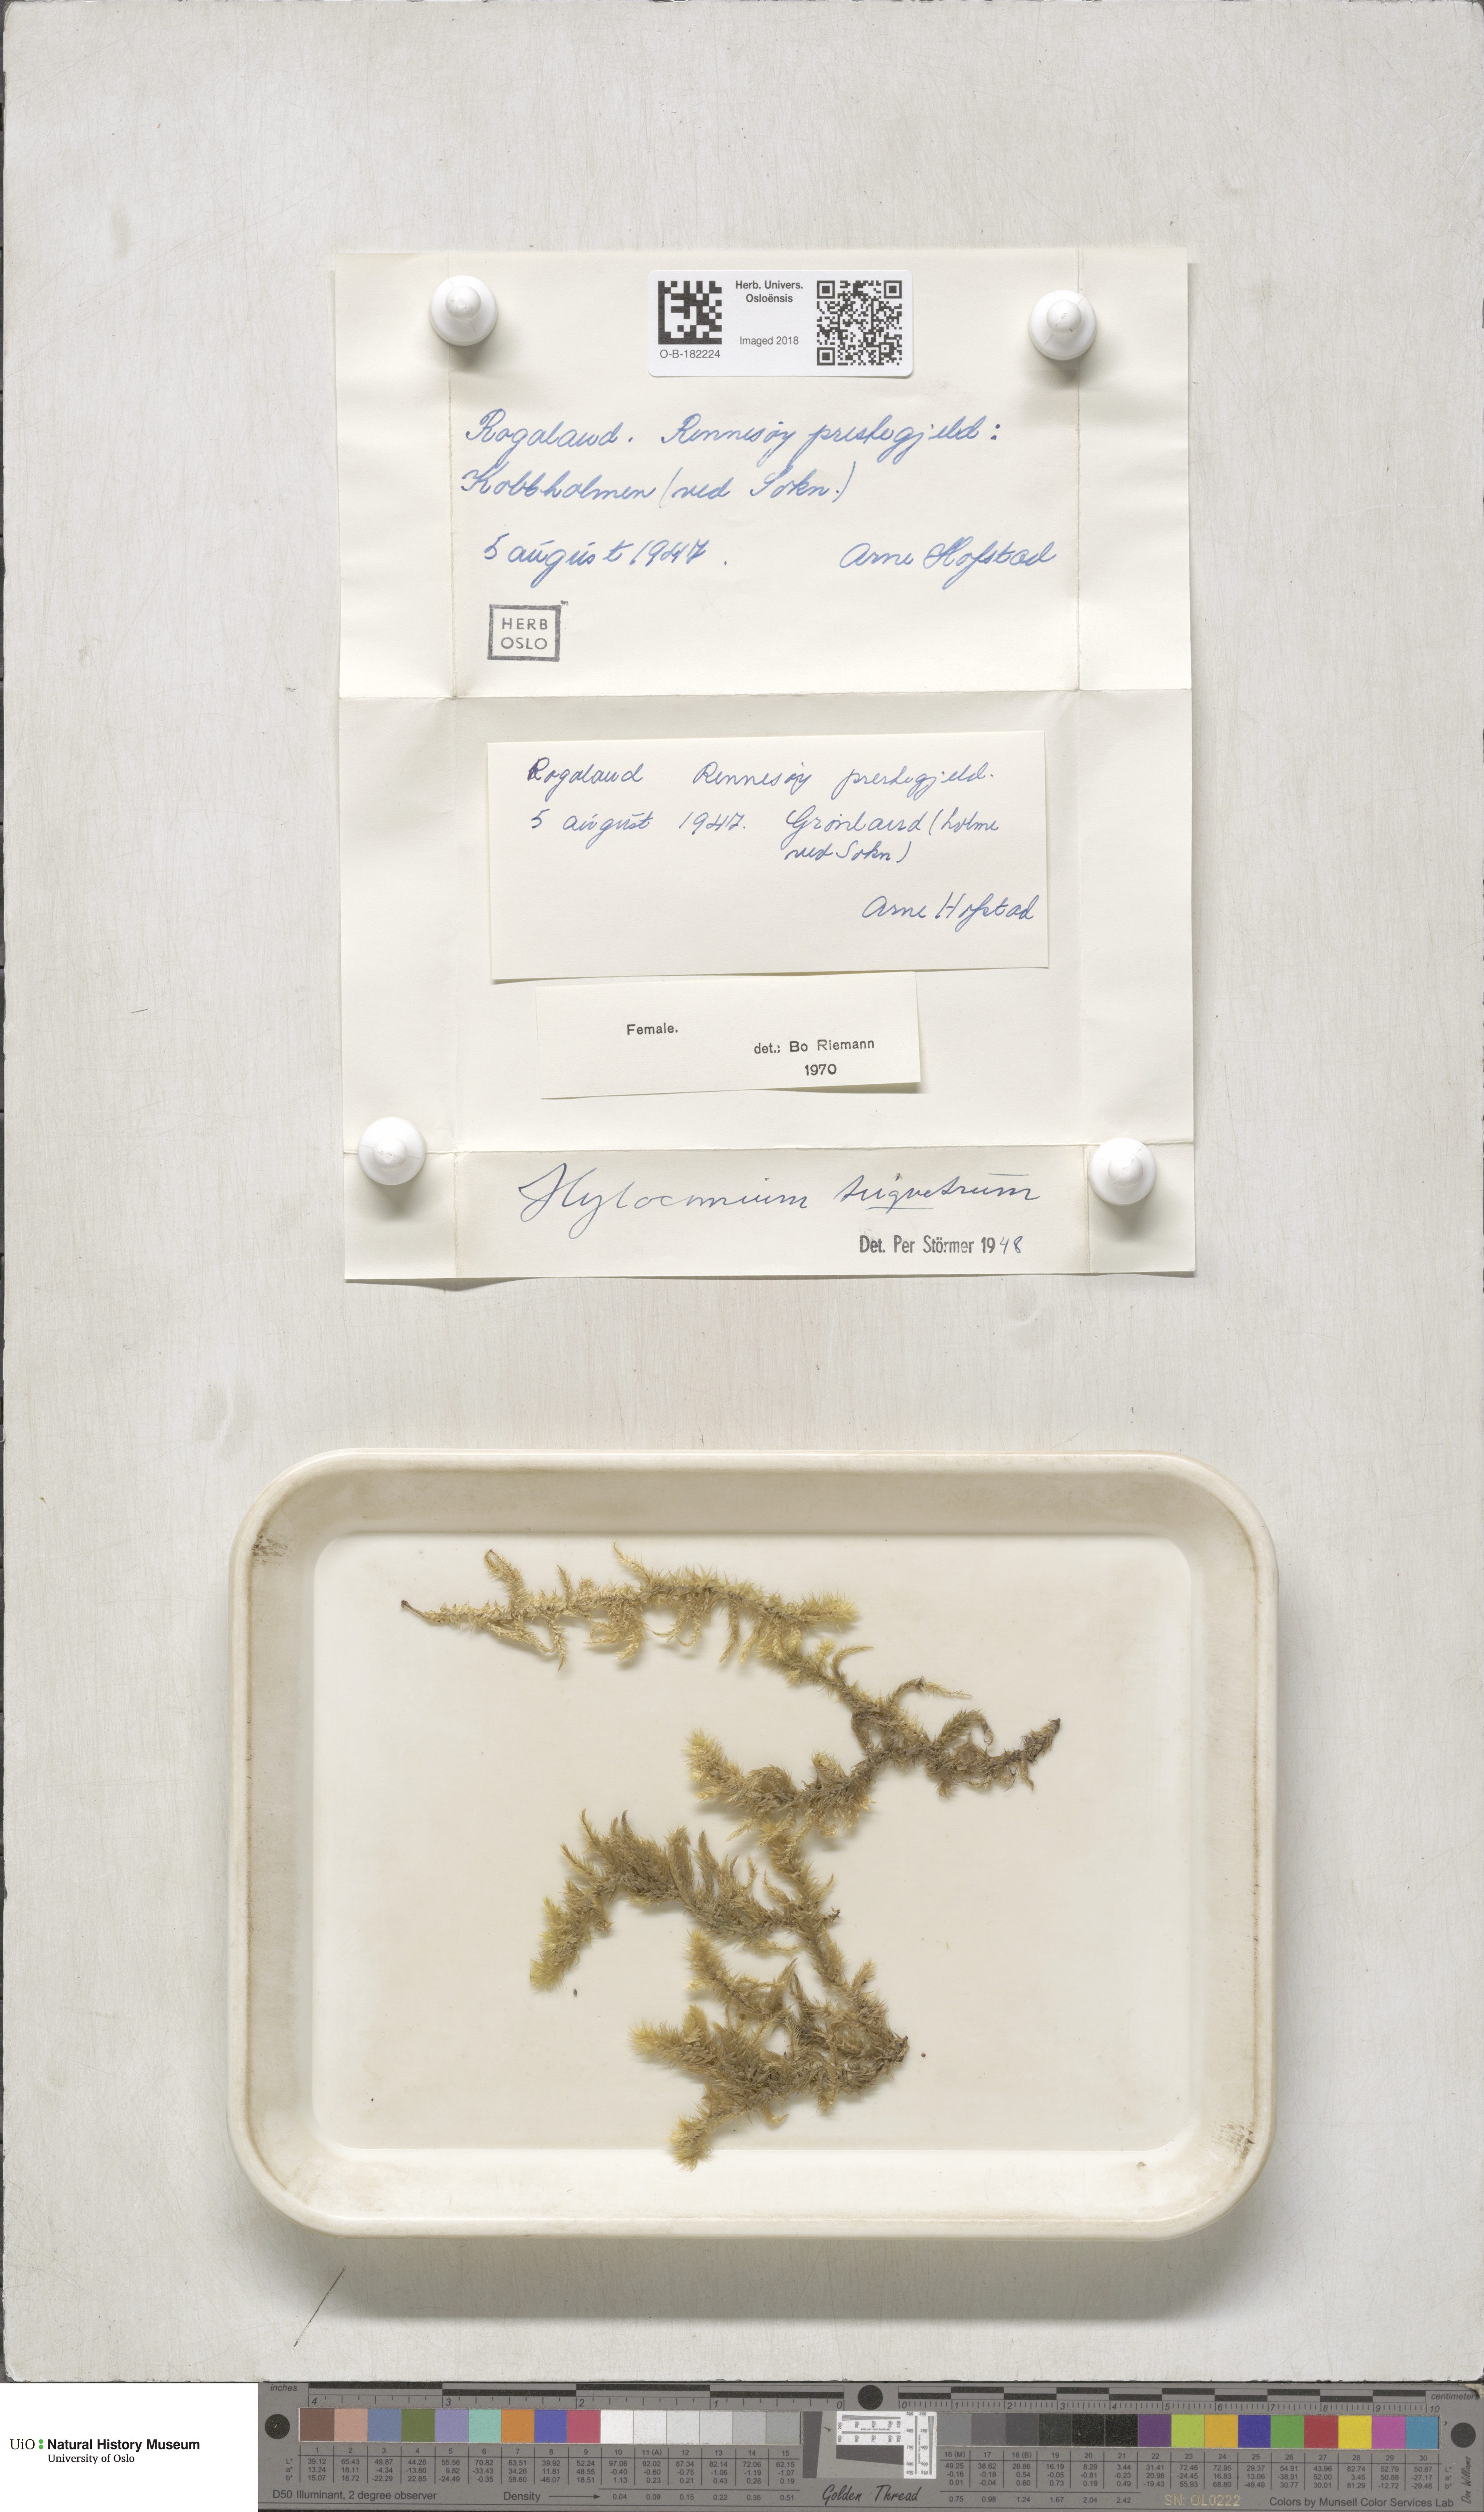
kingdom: Plantae
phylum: Bryophyta
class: Bryopsida
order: Hypnales
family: Hylocomiaceae
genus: Hylocomiadelphus
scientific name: Hylocomiadelphus triquetrus
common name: Rough goose neck moss
